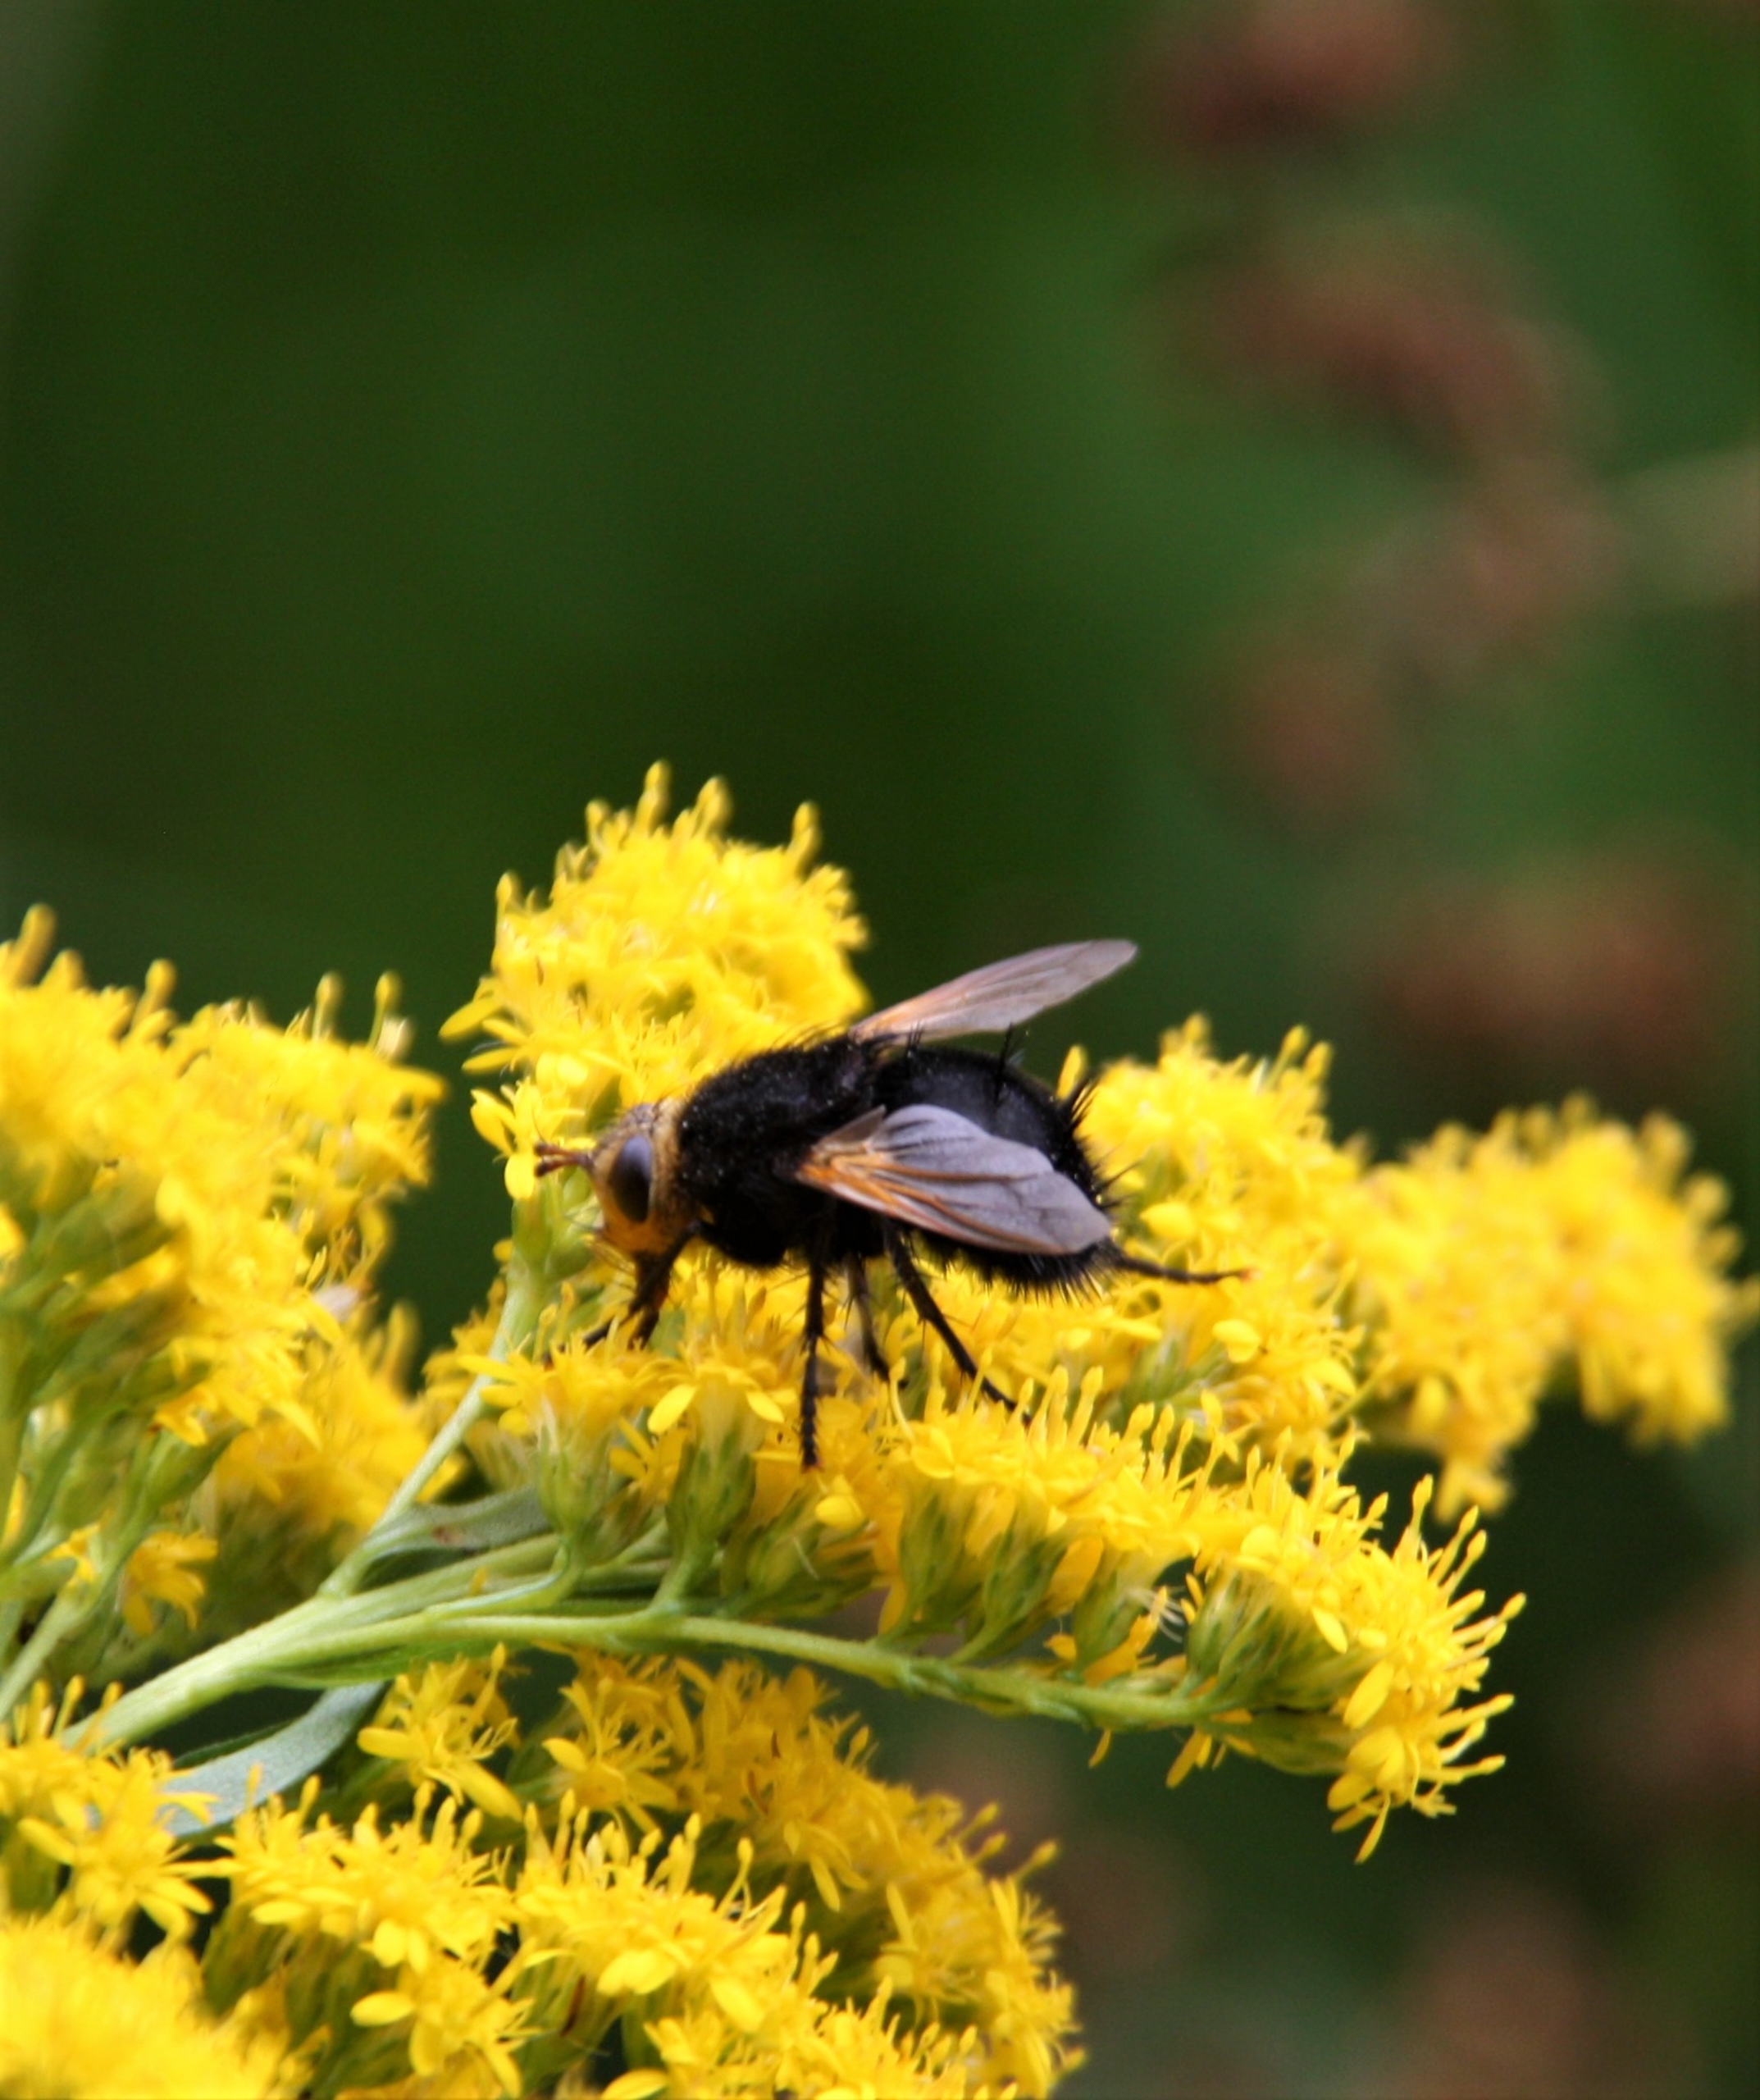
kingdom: Animalia
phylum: Arthropoda
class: Insecta
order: Diptera
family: Tachinidae
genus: Tachina
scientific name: Tachina grossa
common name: Kæmpefluen Harald
